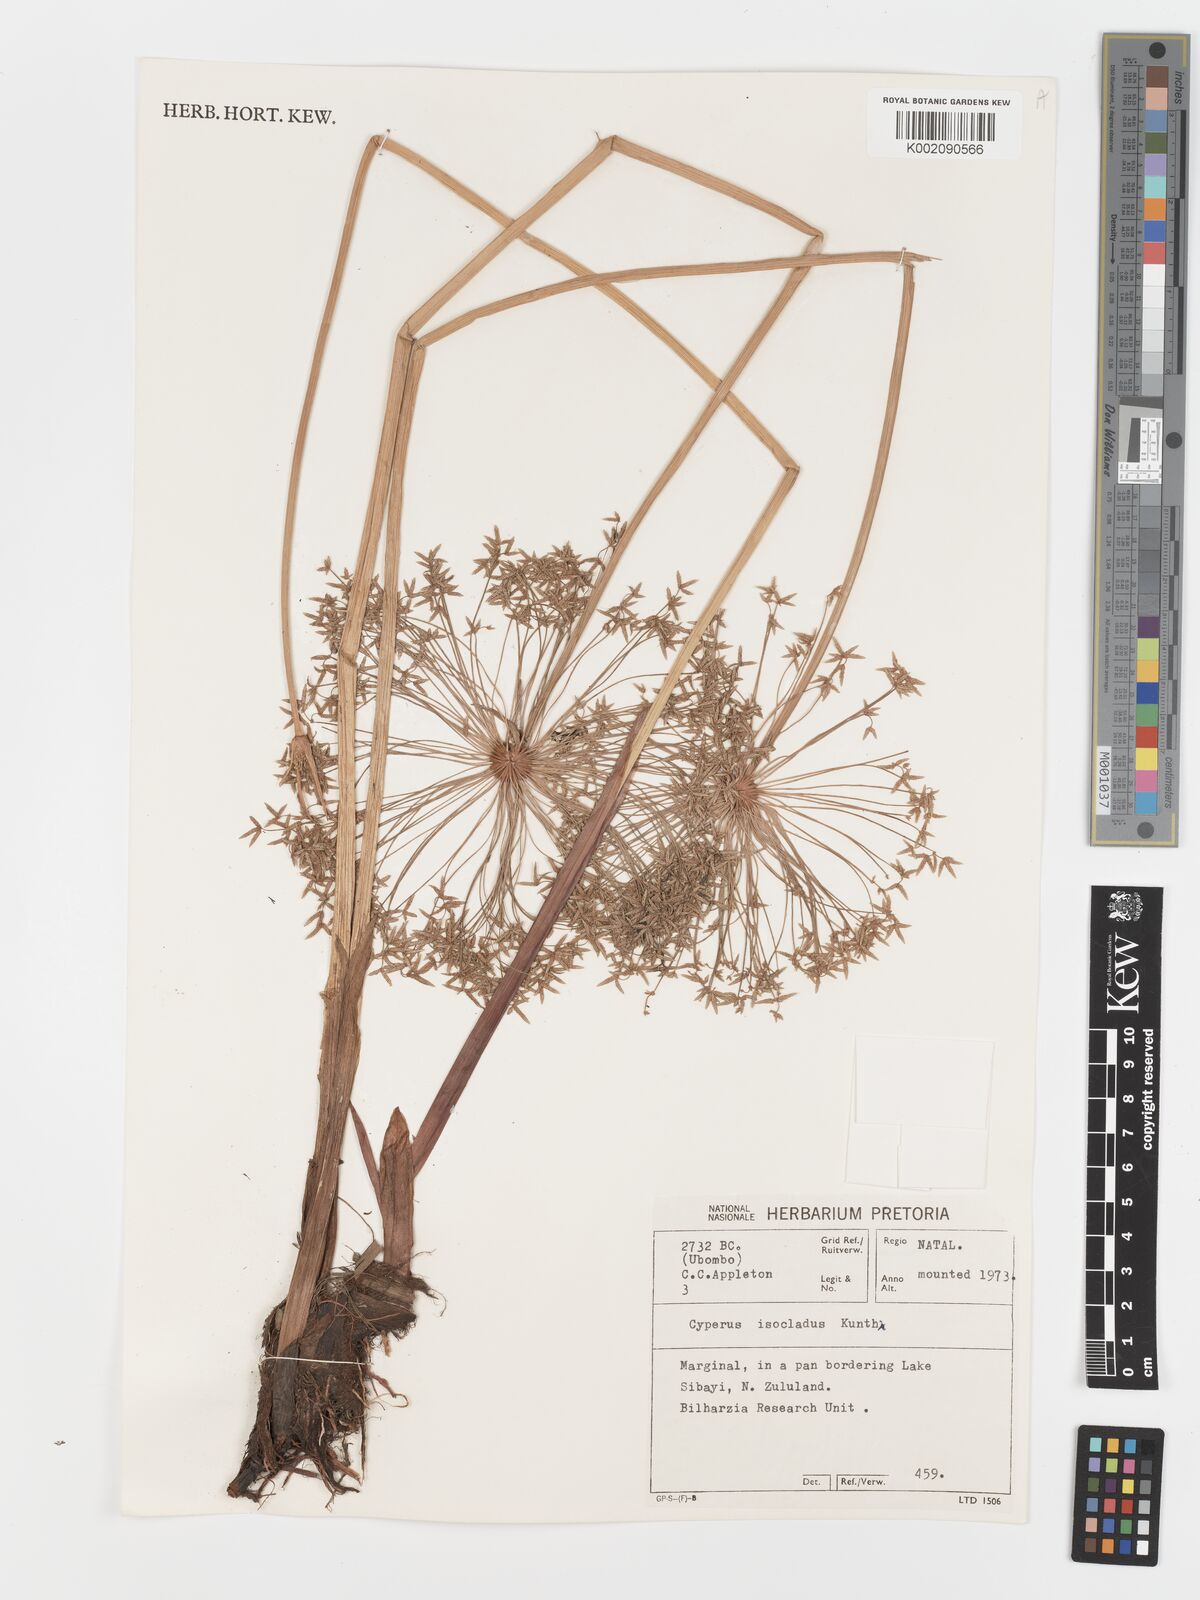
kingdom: Plantae
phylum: Tracheophyta
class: Liliopsida
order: Poales
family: Cyperaceae
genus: Cyperus
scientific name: Cyperus prolifer
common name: Miniature flatsedge
